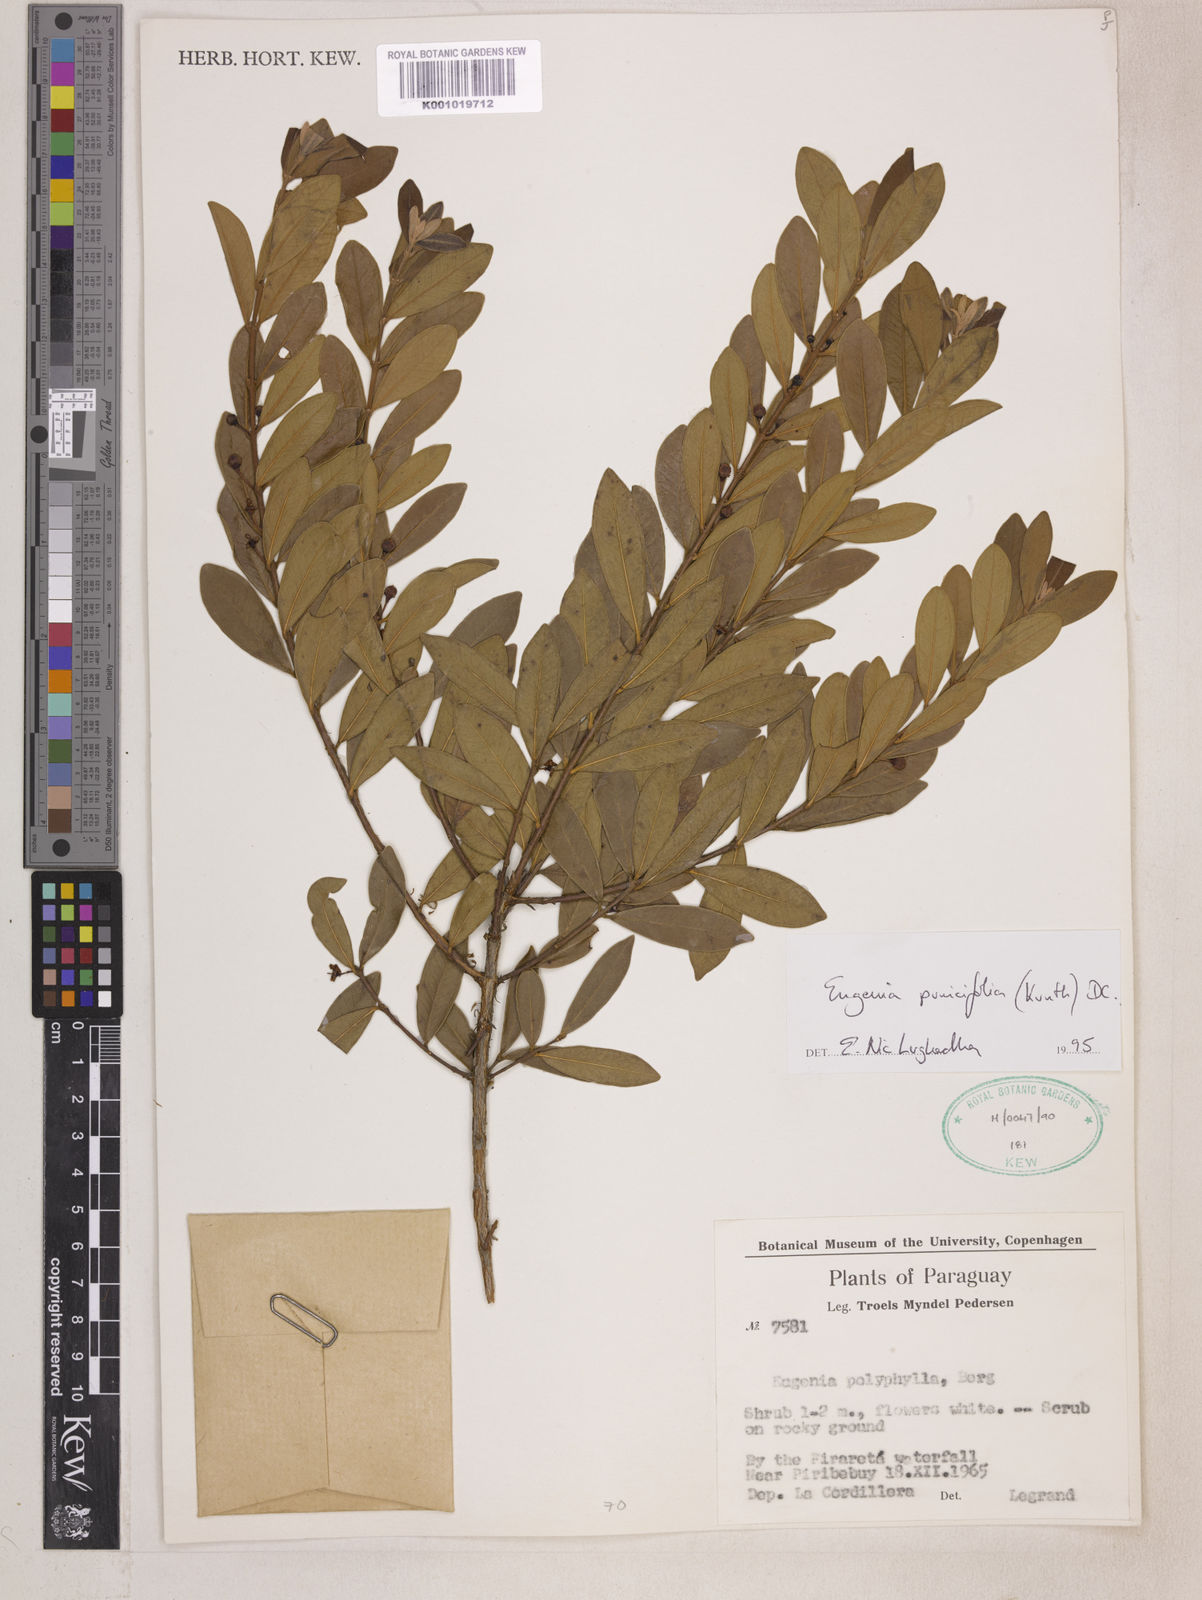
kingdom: Plantae
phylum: Tracheophyta
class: Magnoliopsida
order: Myrtales
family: Myrtaceae
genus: Eugenia
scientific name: Eugenia punicifolia
